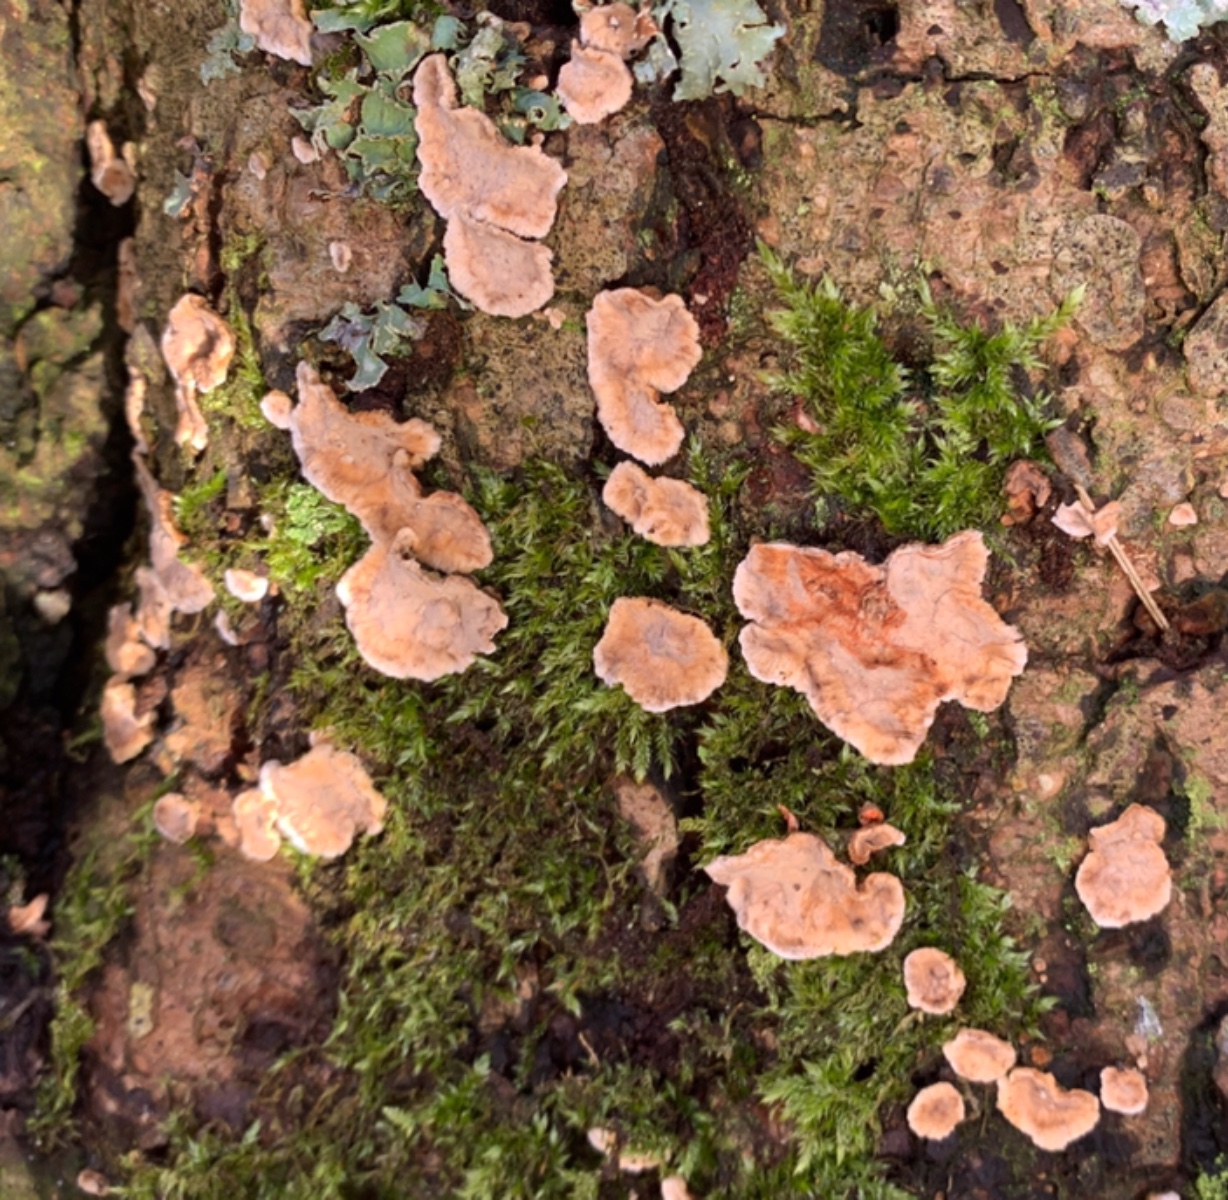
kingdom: Fungi
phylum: Basidiomycota
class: Agaricomycetes
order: Russulales
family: Stereaceae
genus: Stereum
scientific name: Stereum rugosum
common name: rynket lædersvamp
